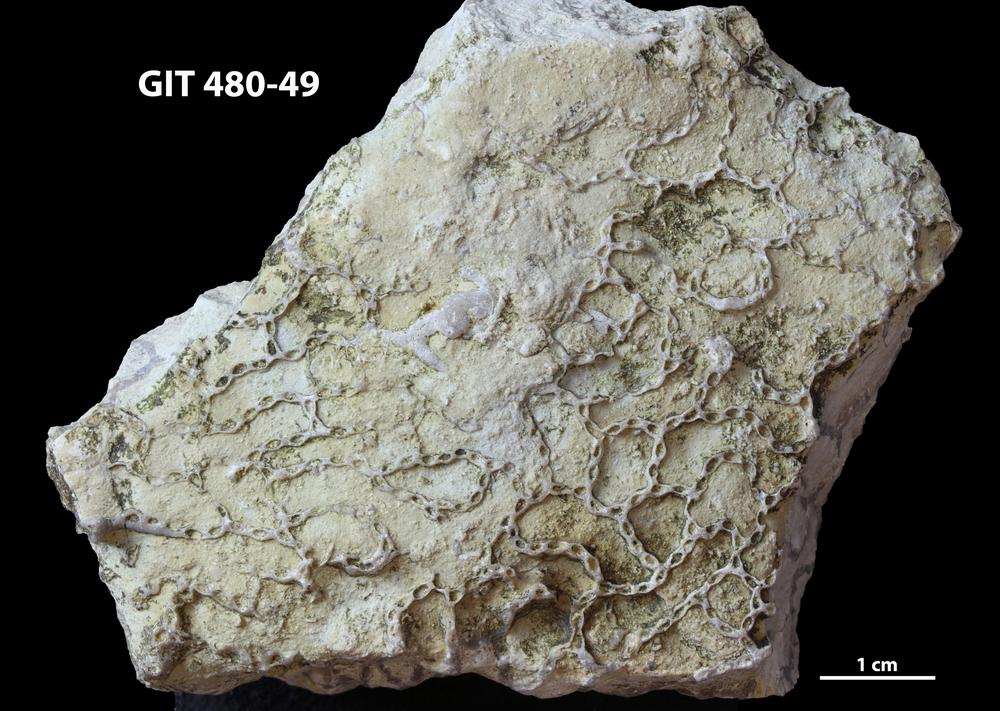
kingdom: Animalia
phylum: Cnidaria
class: Anthozoa
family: Cateniporidae
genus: Catenipora
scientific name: Catenipora
